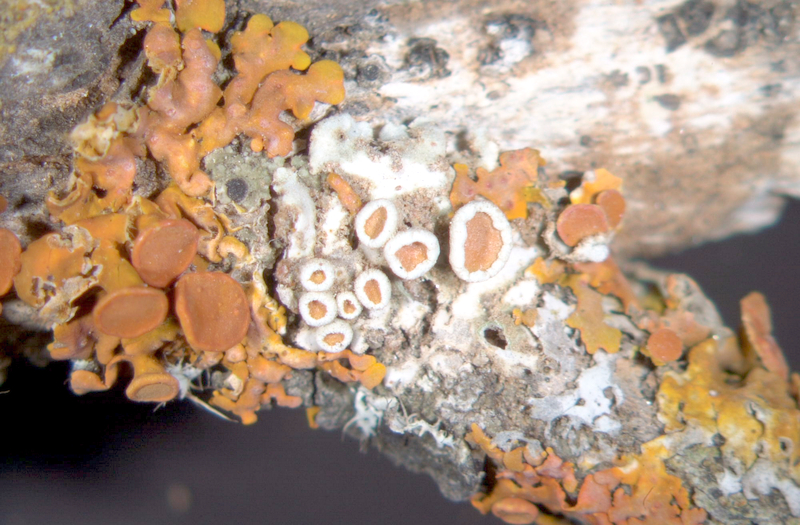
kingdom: Fungi
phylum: Ascomycota
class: Lecanoromycetes
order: Caliciales
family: Physciaceae
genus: Rinodina
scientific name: Rinodina australiensis
